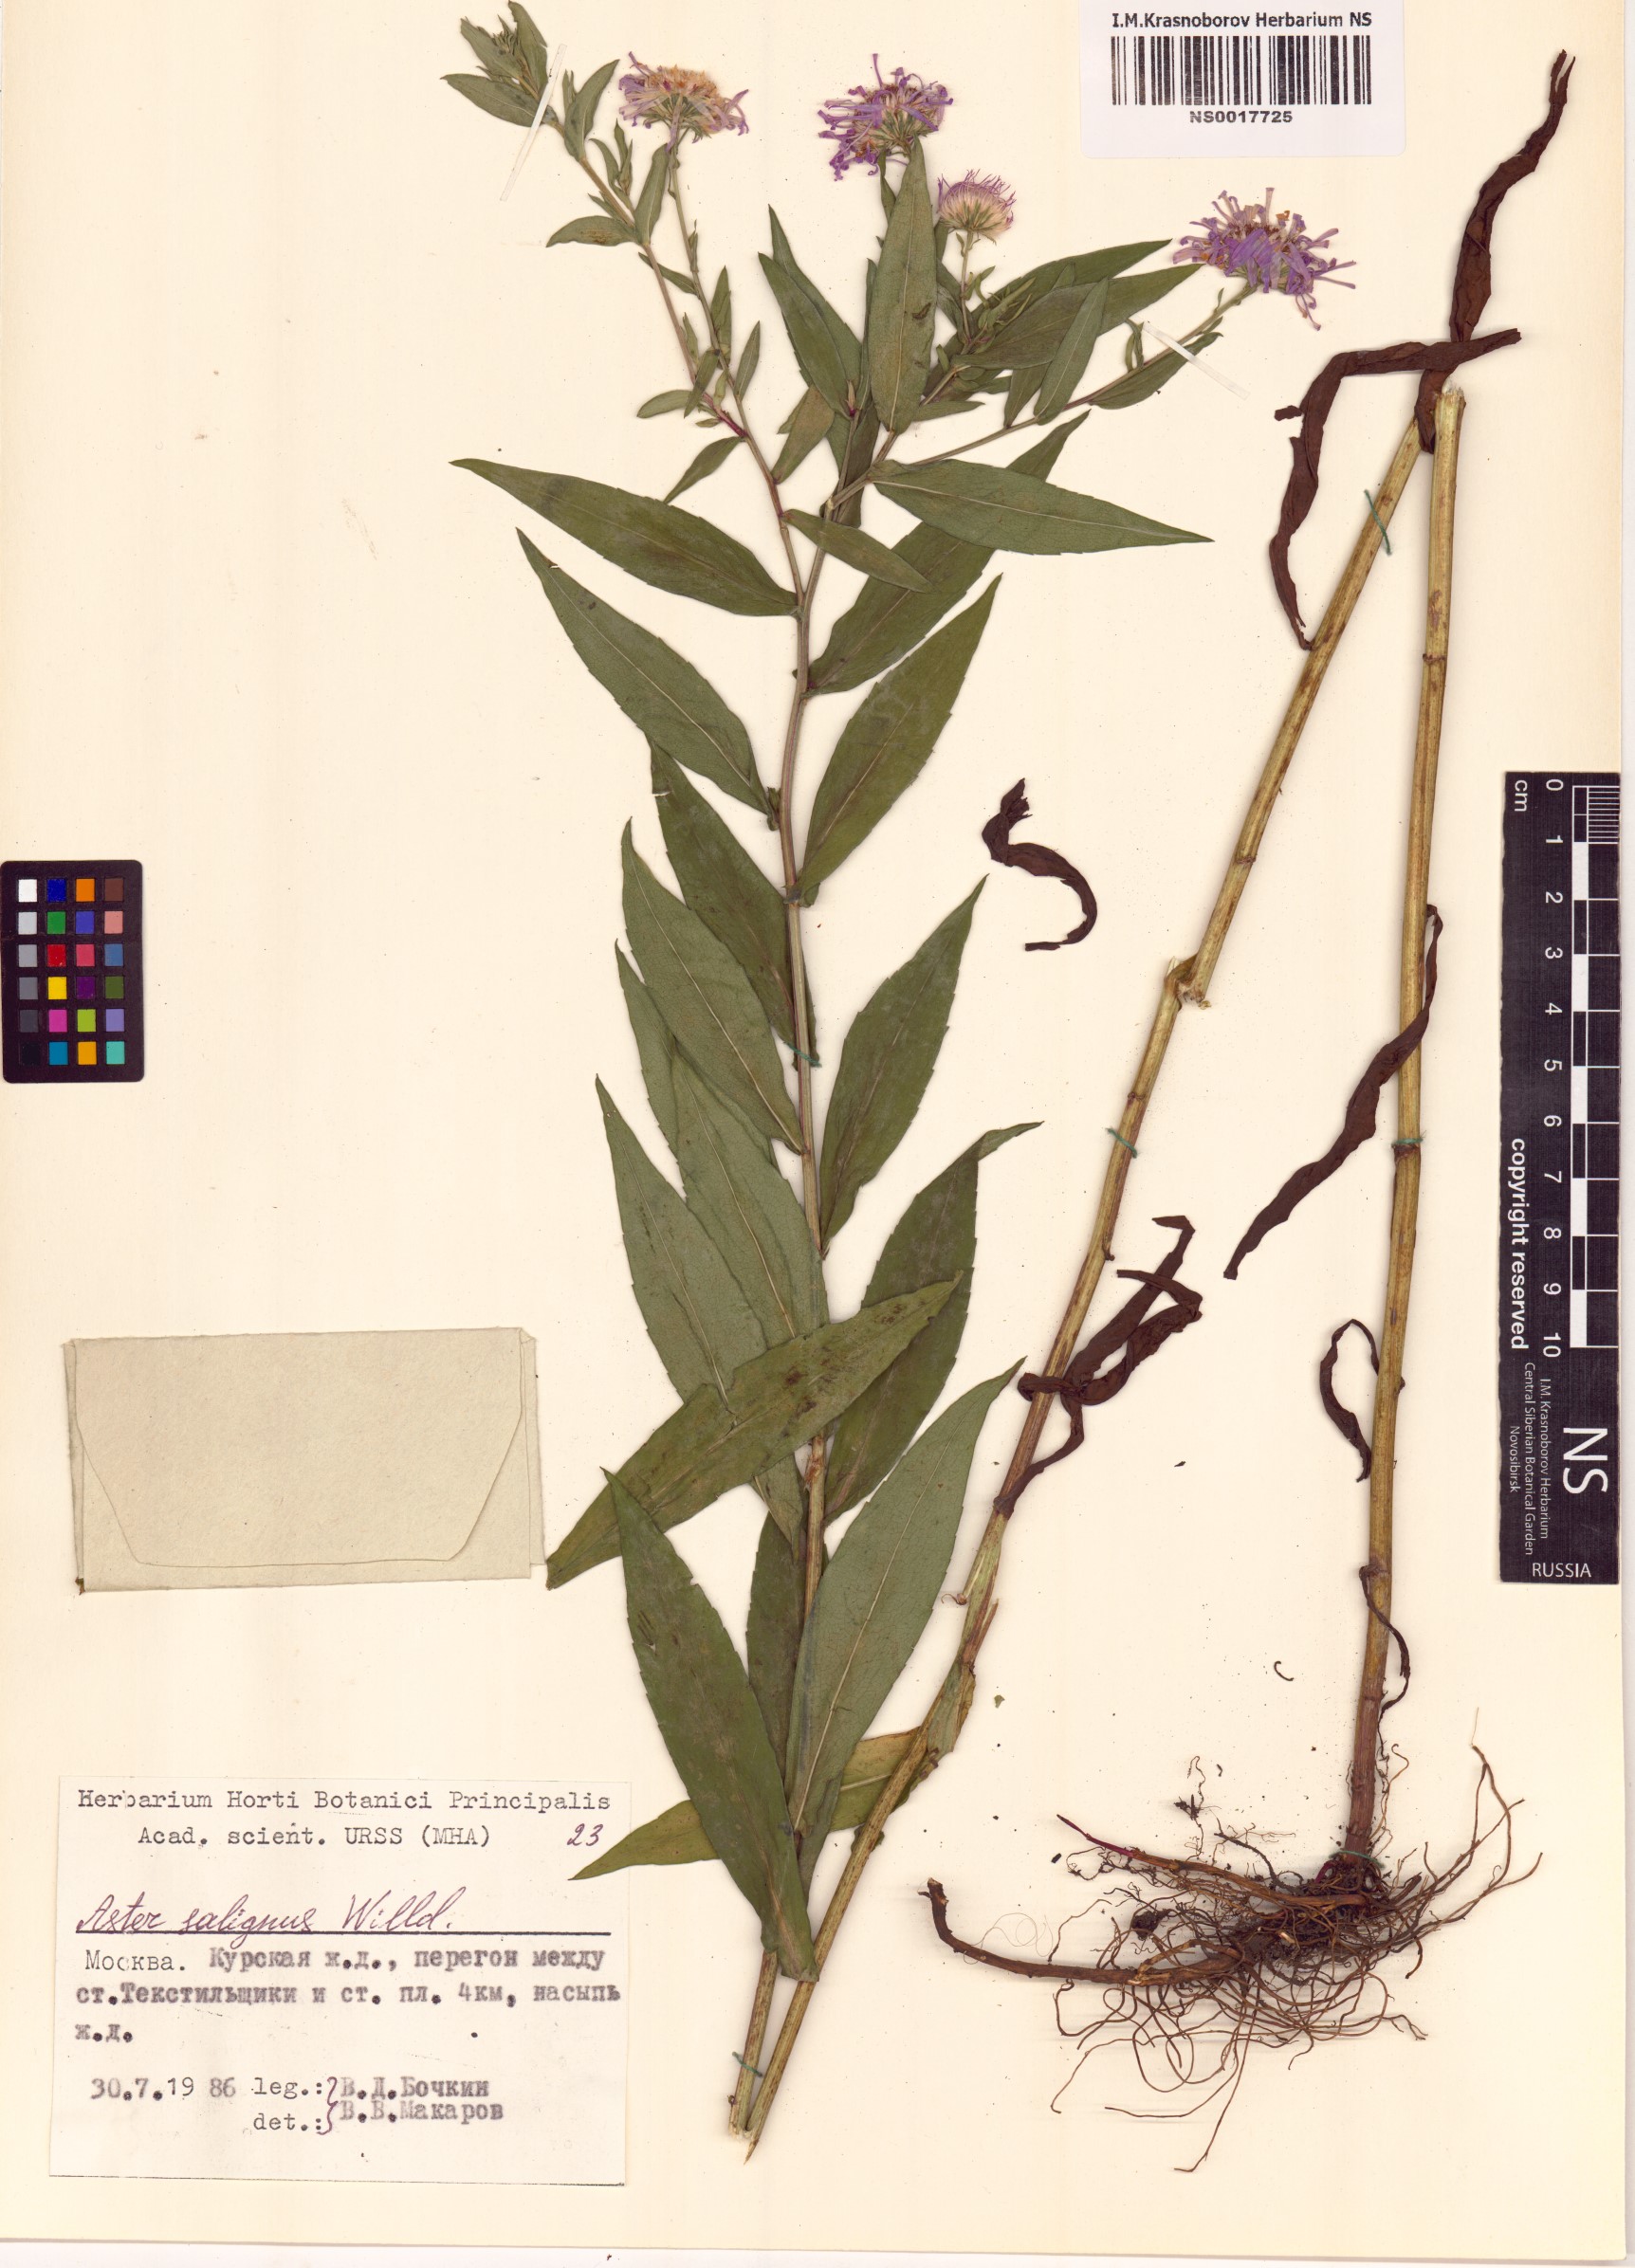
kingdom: Plantae
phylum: Tracheophyta
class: Magnoliopsida
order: Asterales
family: Asteraceae
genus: Symphyotrichum
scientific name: Symphyotrichum salignum
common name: Common michaelmas daisy
